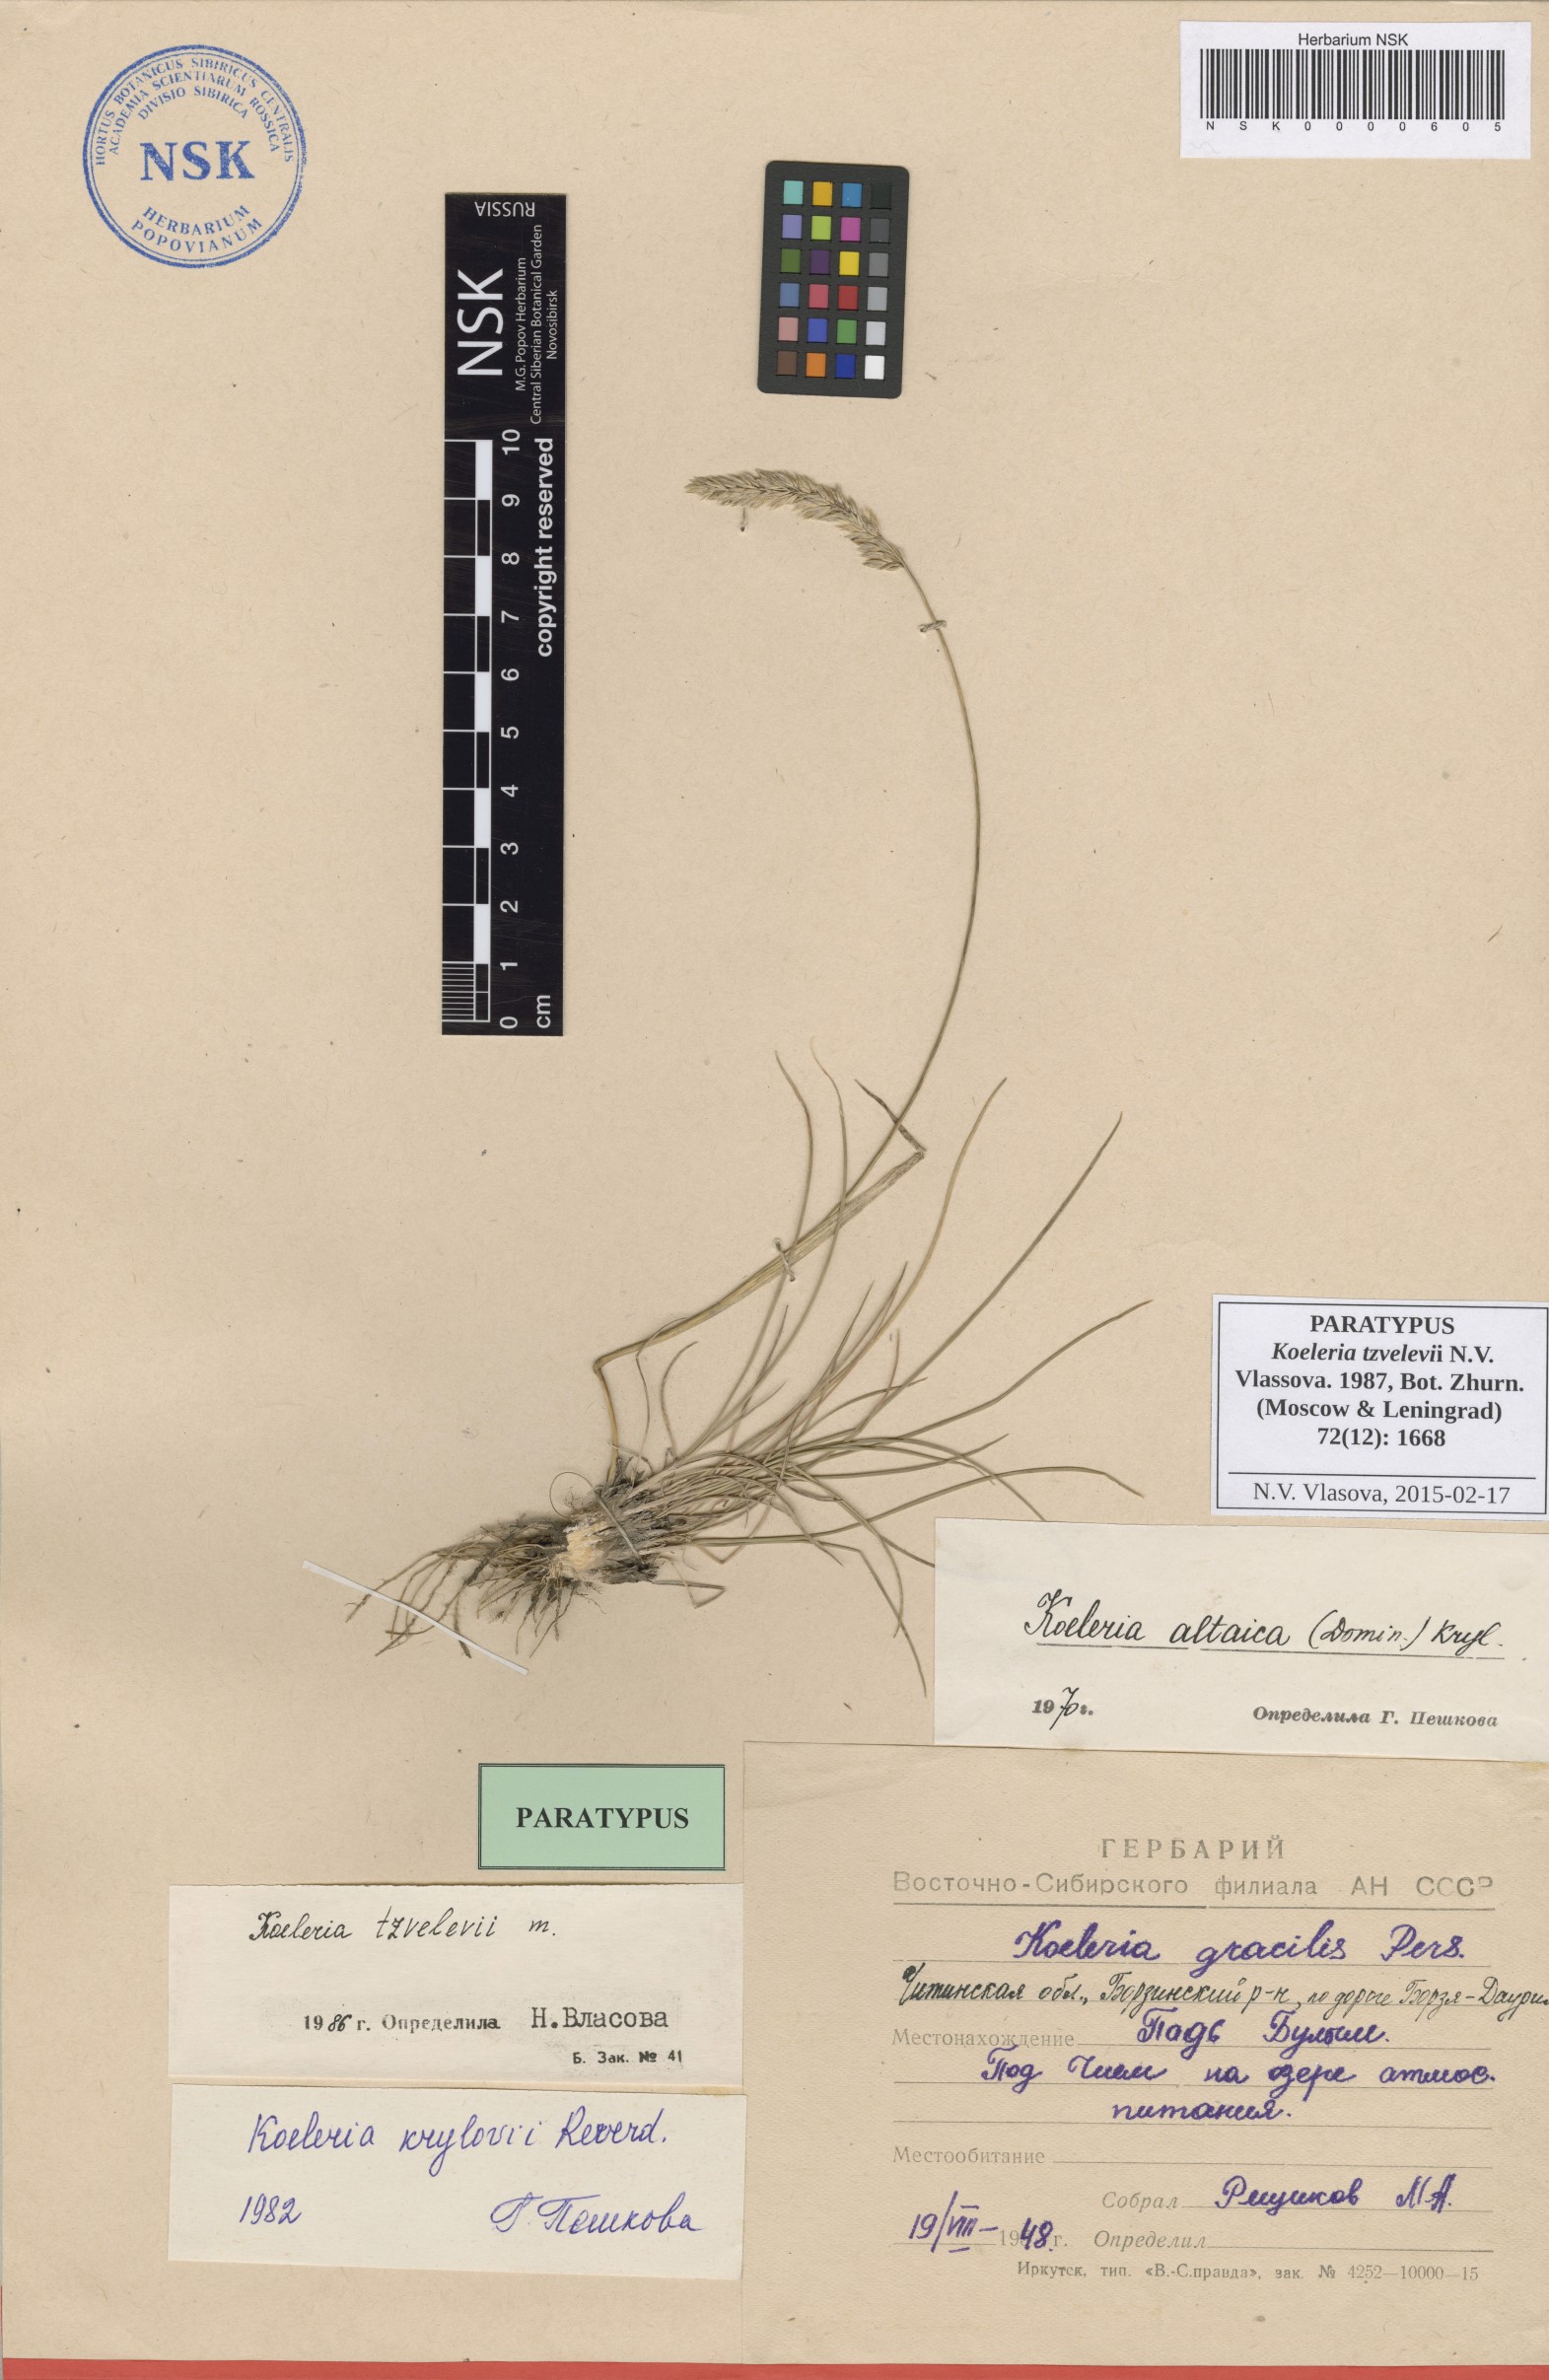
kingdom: Plantae
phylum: Tracheophyta
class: Liliopsida
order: Poales
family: Poaceae
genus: Koeleria
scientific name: Koeleria tzvelevii
